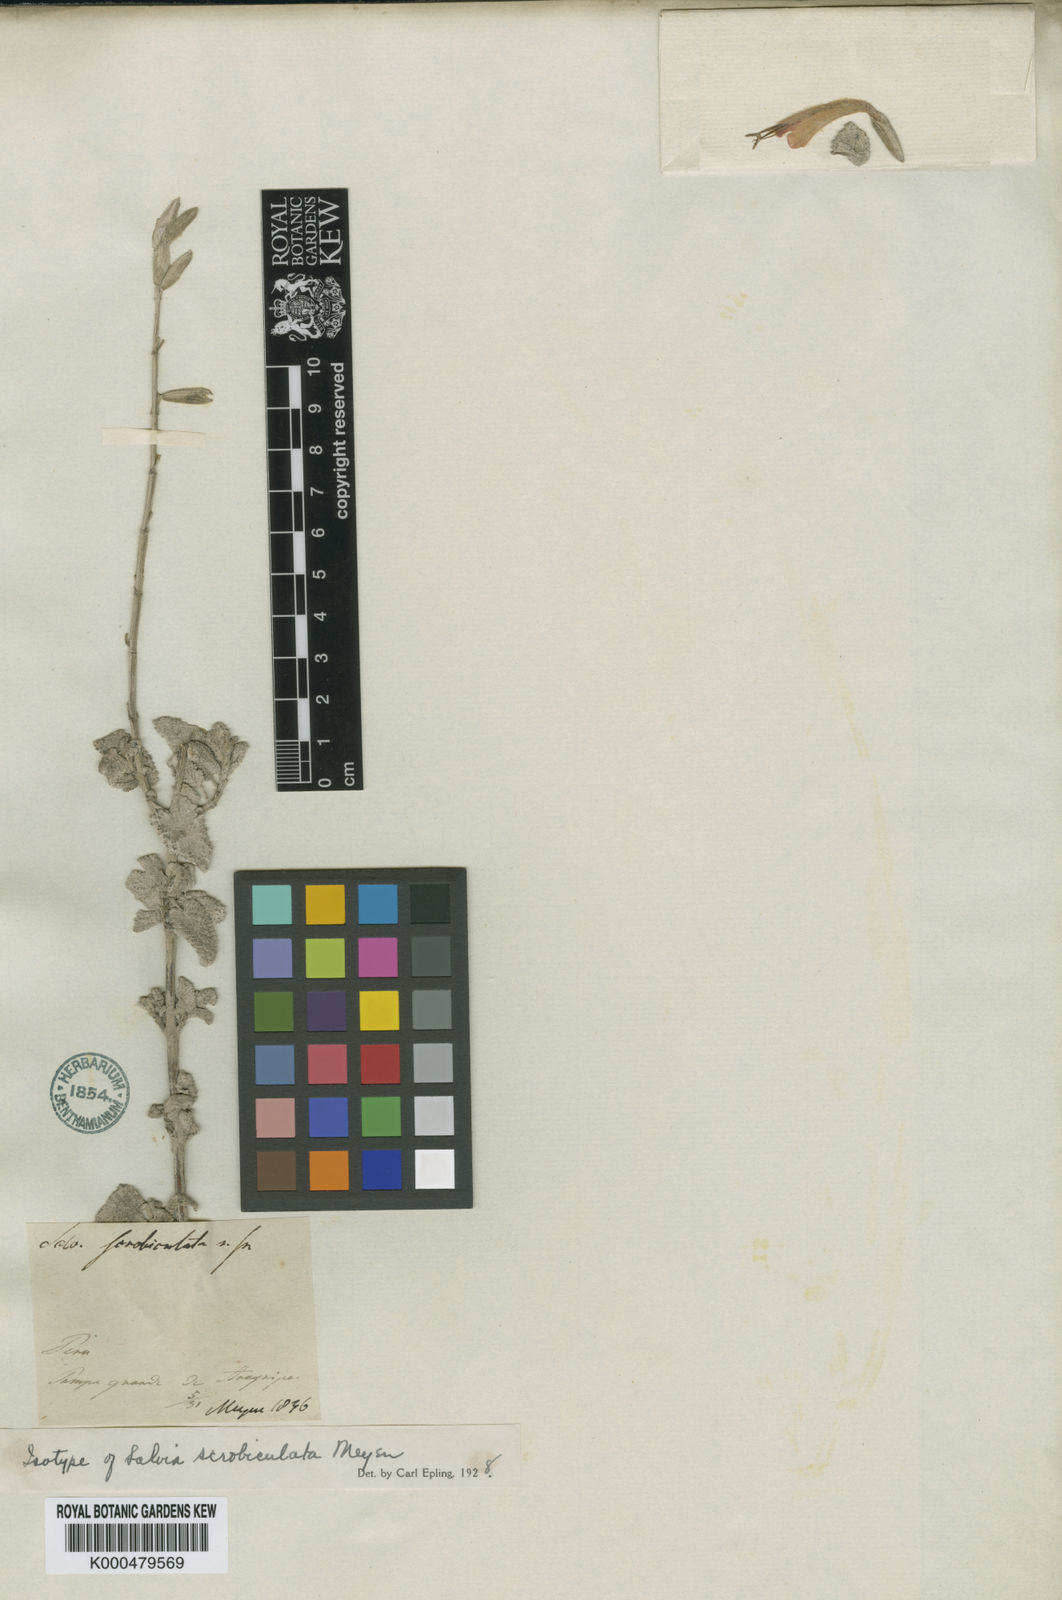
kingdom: Plantae
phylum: Tracheophyta
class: Magnoliopsida
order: Lamiales
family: Lamiaceae
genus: Salvia
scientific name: Salvia tubiflora
